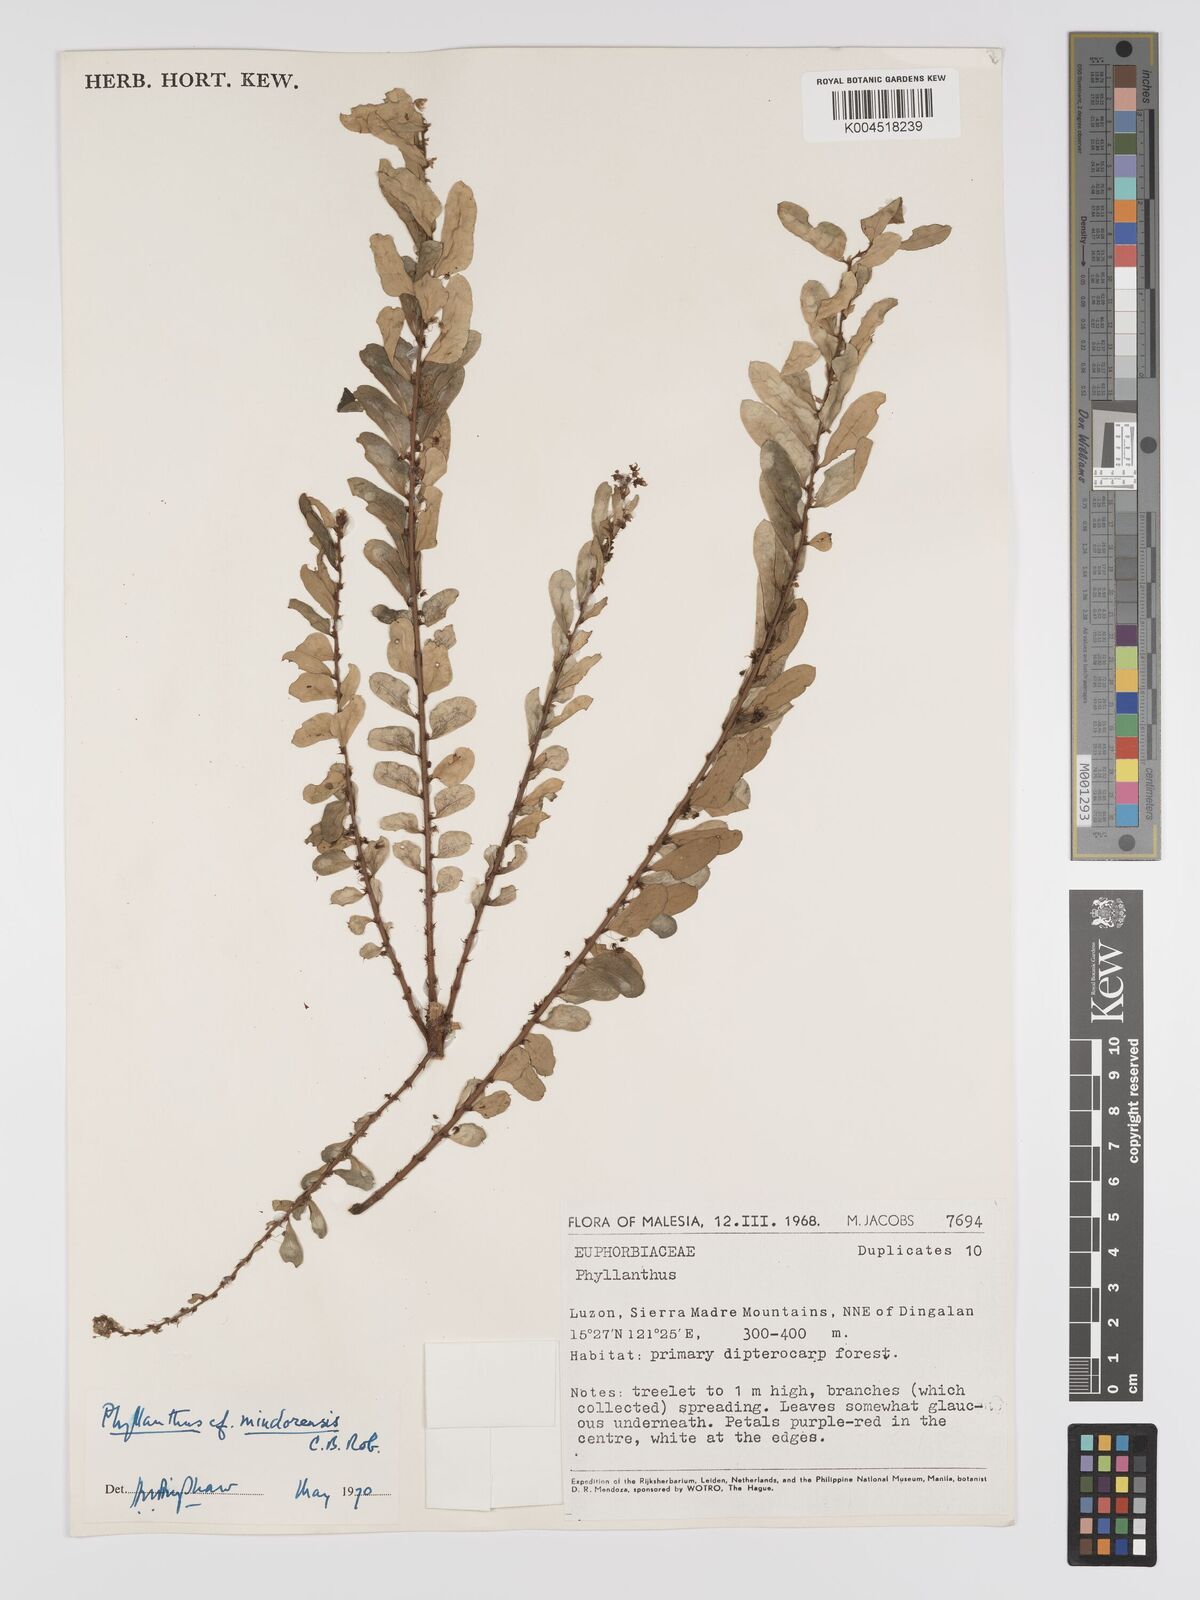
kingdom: Plantae
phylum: Tracheophyta
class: Magnoliopsida
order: Malpighiales
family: Phyllanthaceae
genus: Phyllanthus
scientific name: Phyllanthus celebicus
